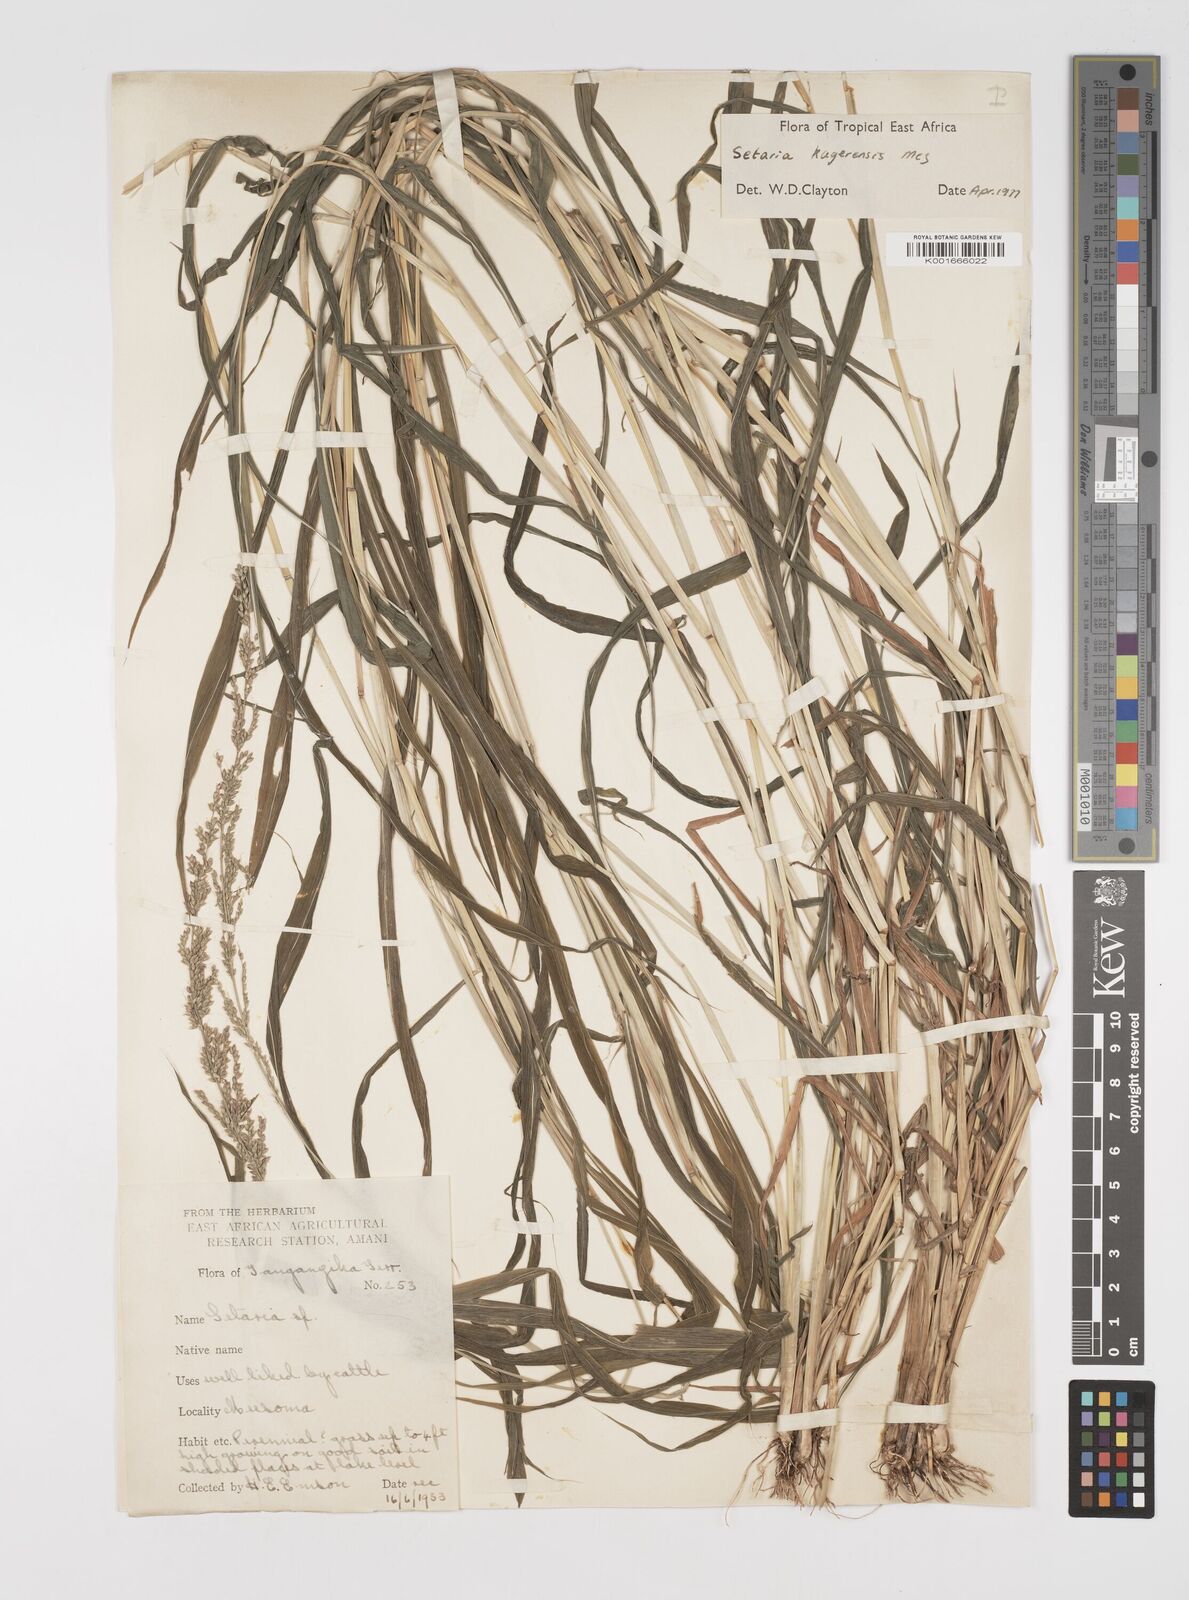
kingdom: Plantae
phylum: Tracheophyta
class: Liliopsida
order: Poales
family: Poaceae
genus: Setaria
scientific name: Setaria kagerensis
